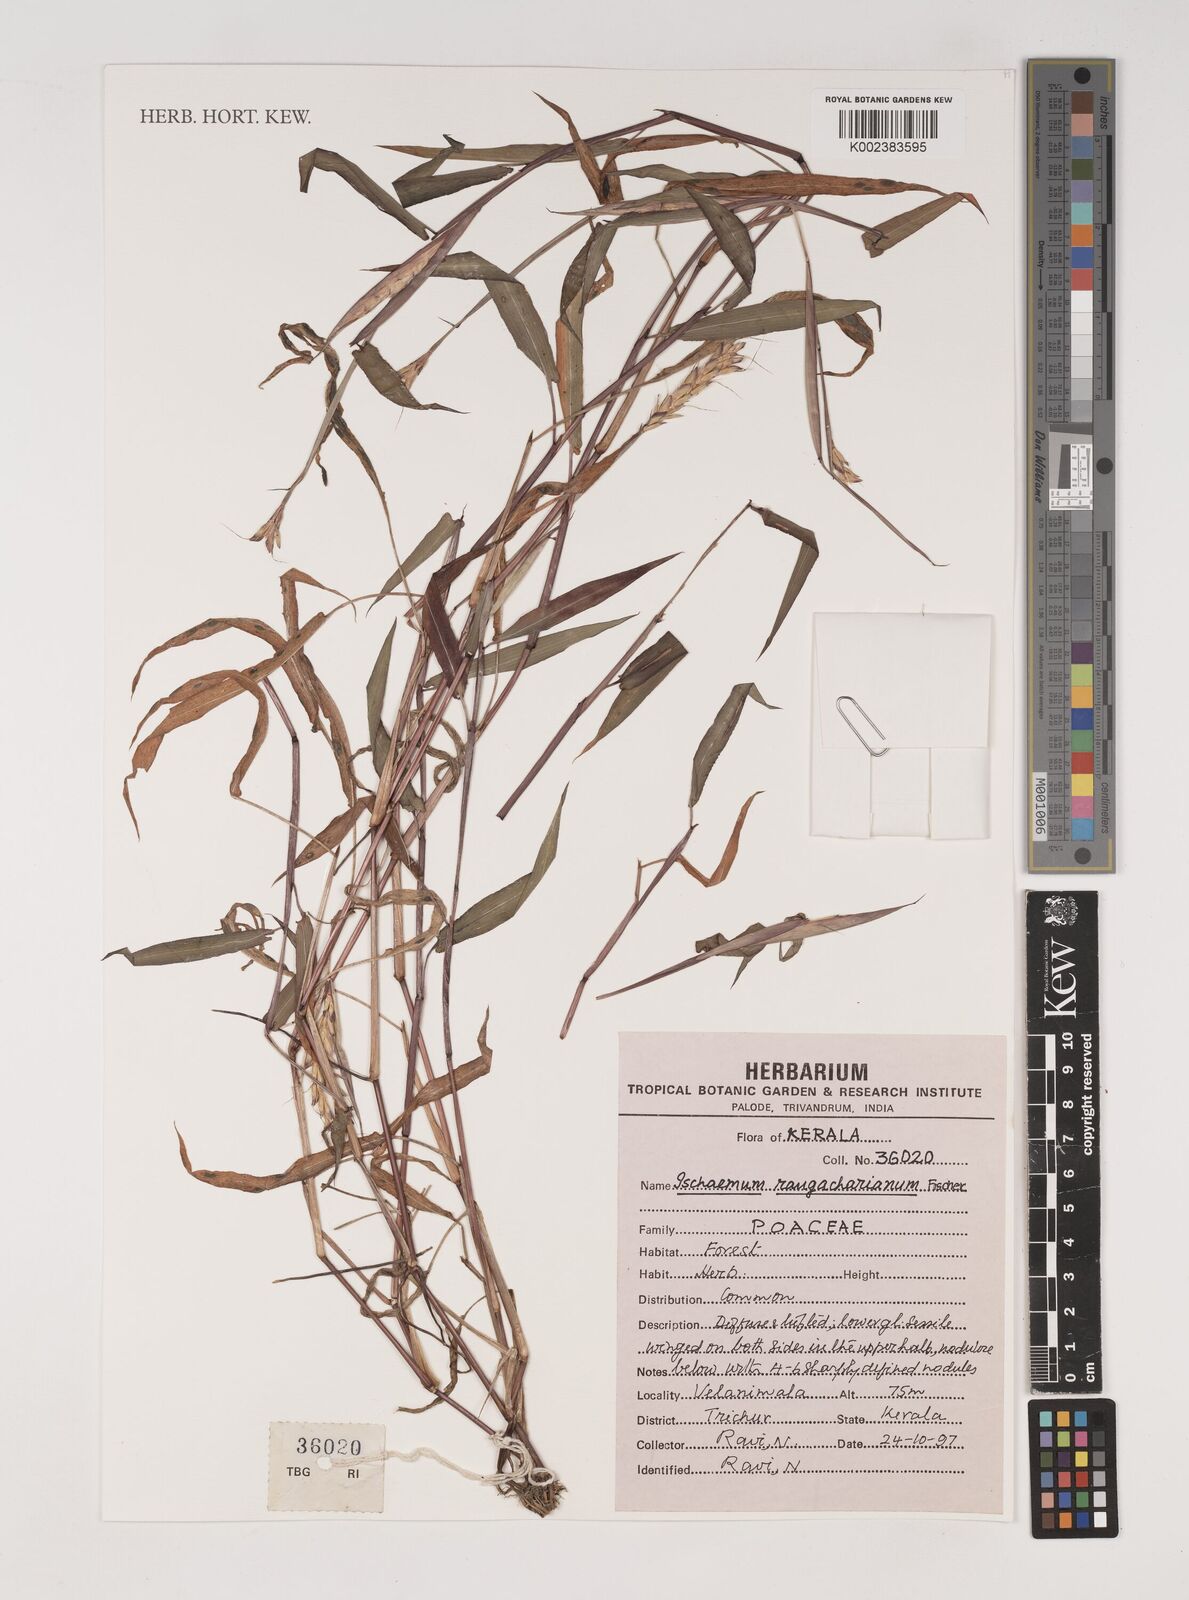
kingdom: Plantae
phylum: Tracheophyta
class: Liliopsida
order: Poales
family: Poaceae
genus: Ischaemum
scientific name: Ischaemum rangacharianum
